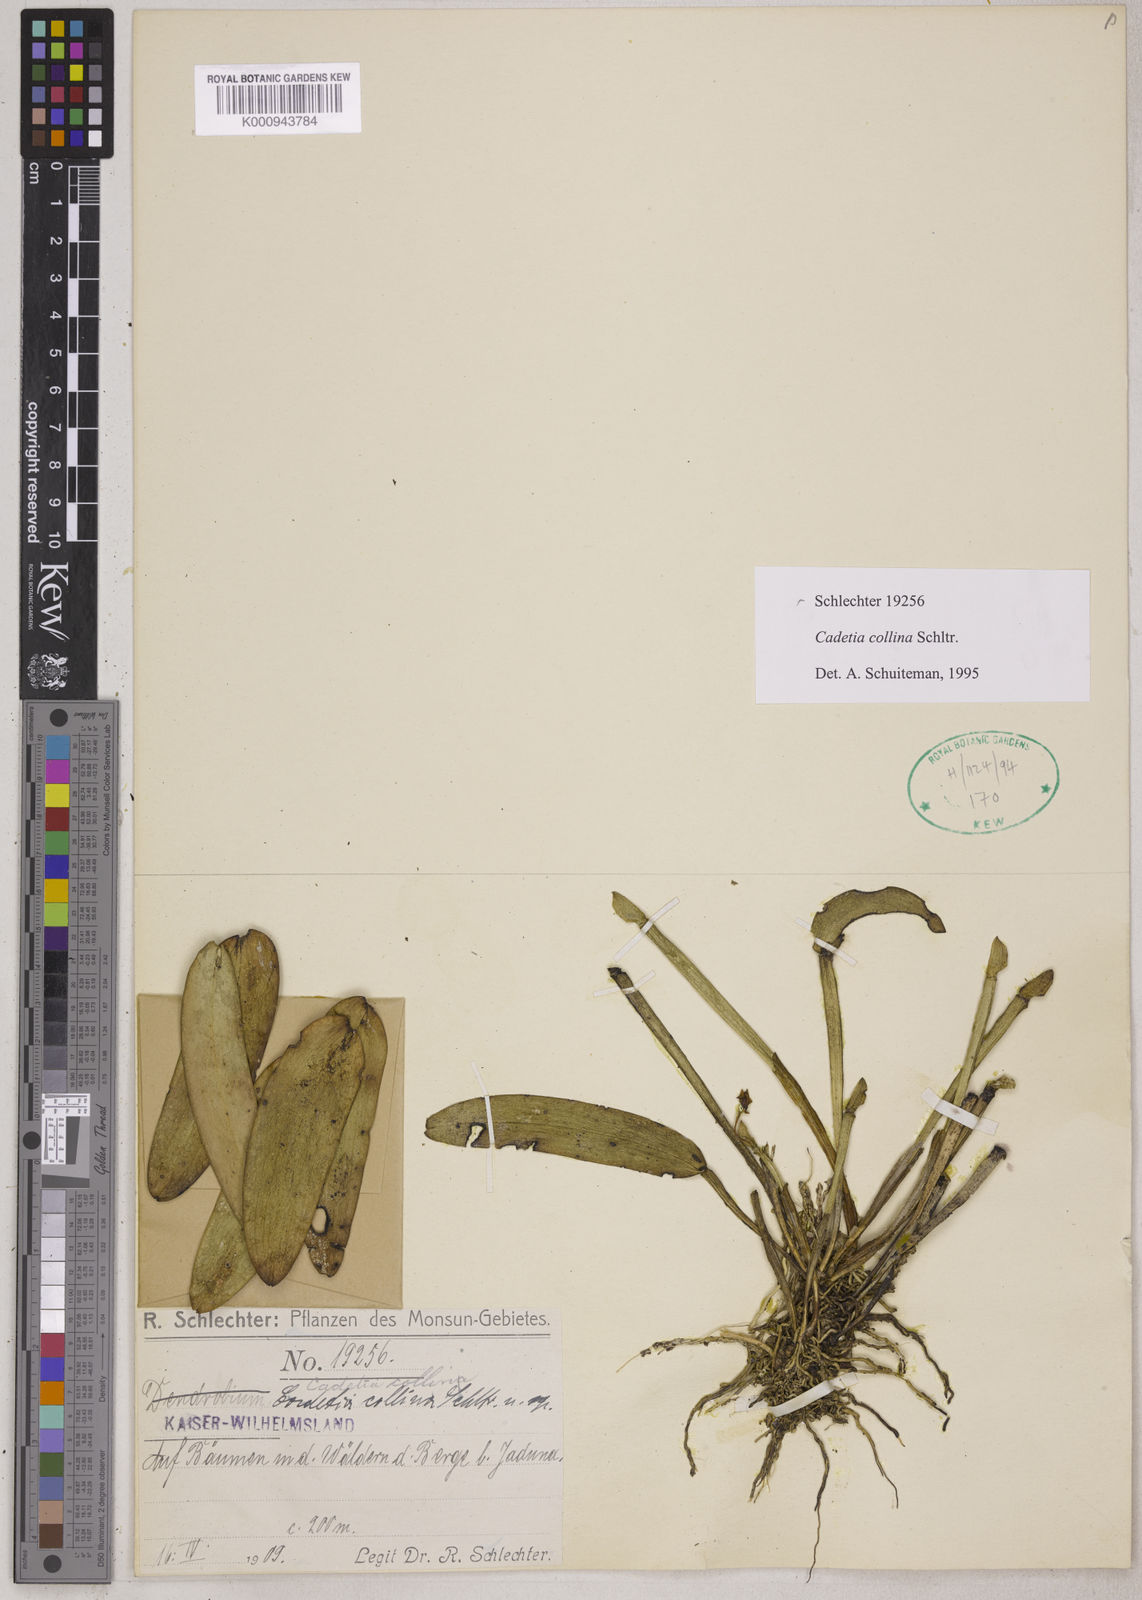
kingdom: Plantae
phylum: Tracheophyta
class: Liliopsida
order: Asparagales
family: Orchidaceae
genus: Dendrobium
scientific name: Dendrobium versteegii
